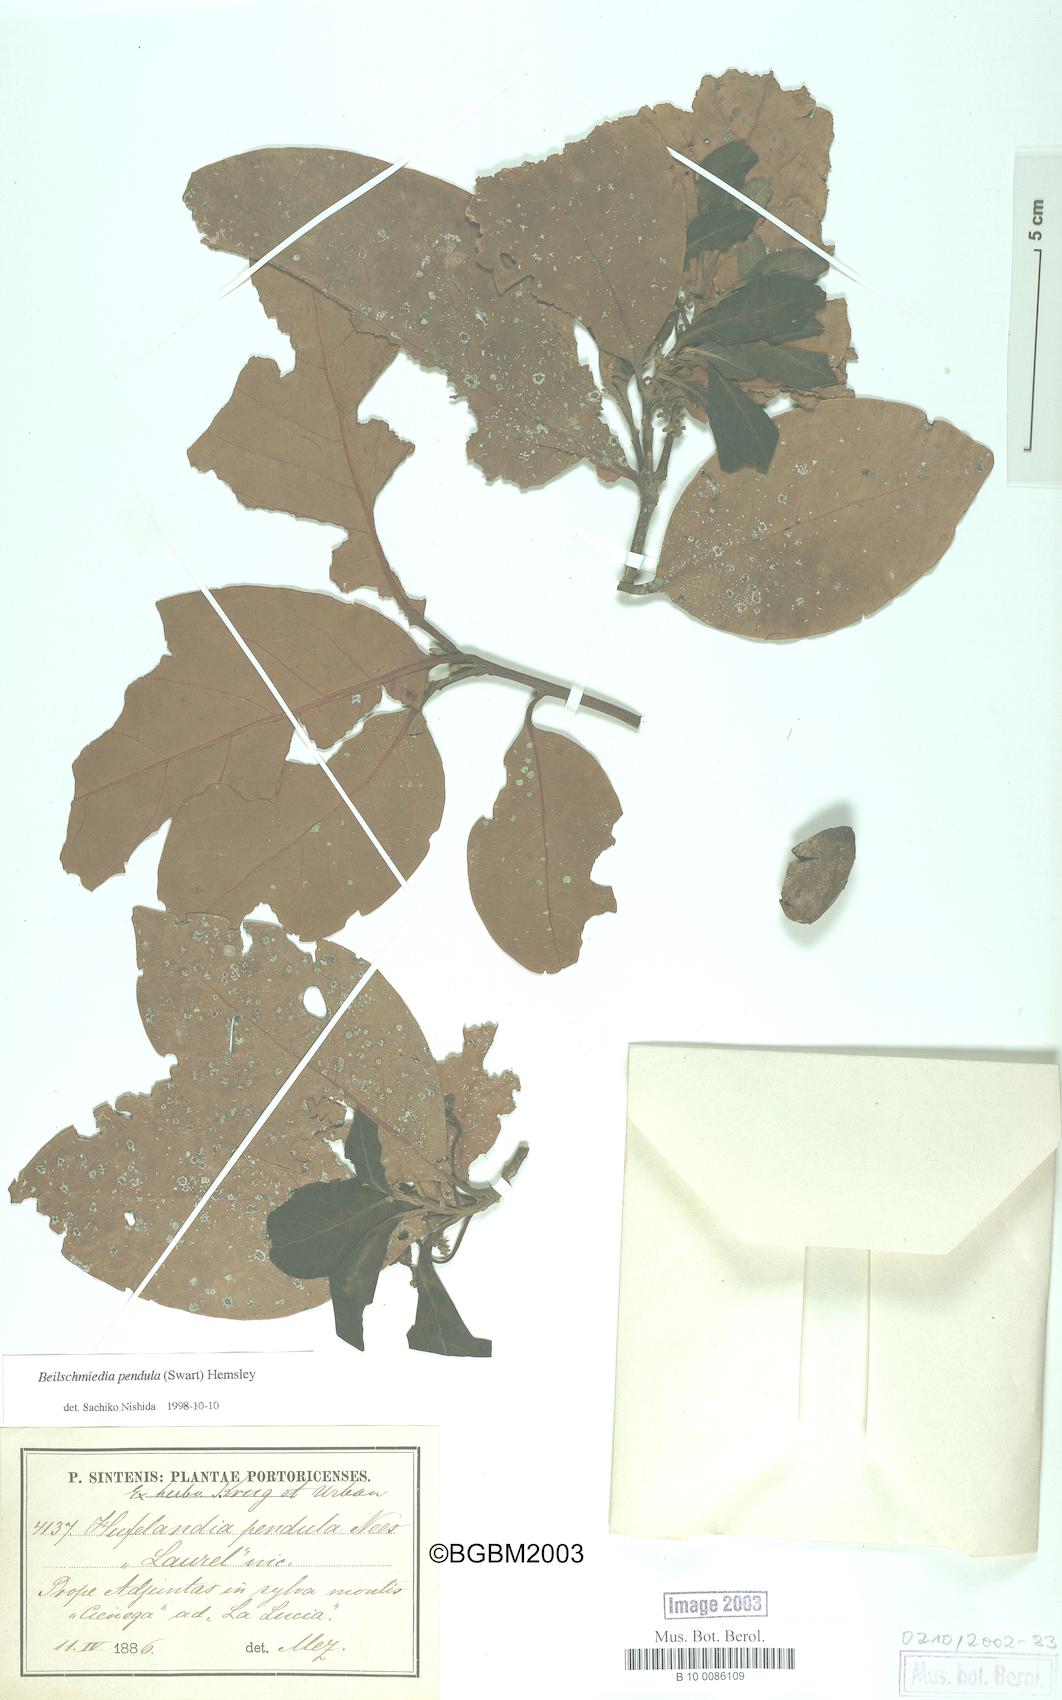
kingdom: Plantae
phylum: Tracheophyta
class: Magnoliopsida
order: Laurales
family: Lauraceae
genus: Beilschmiedia
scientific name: Beilschmiedia pendula
